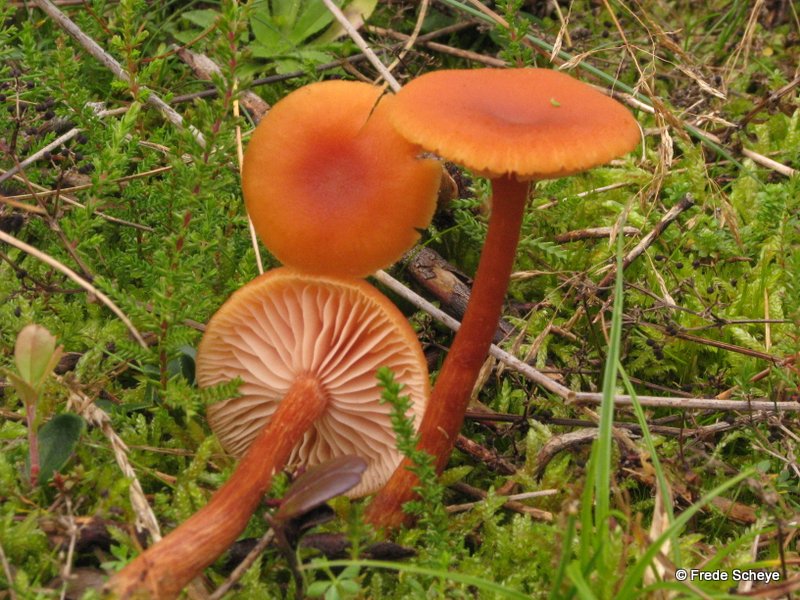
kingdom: Fungi
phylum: Basidiomycota
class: Agaricomycetes
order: Agaricales
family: Hydnangiaceae
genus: Laccaria
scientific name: Laccaria laccata
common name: rød ametysthat
